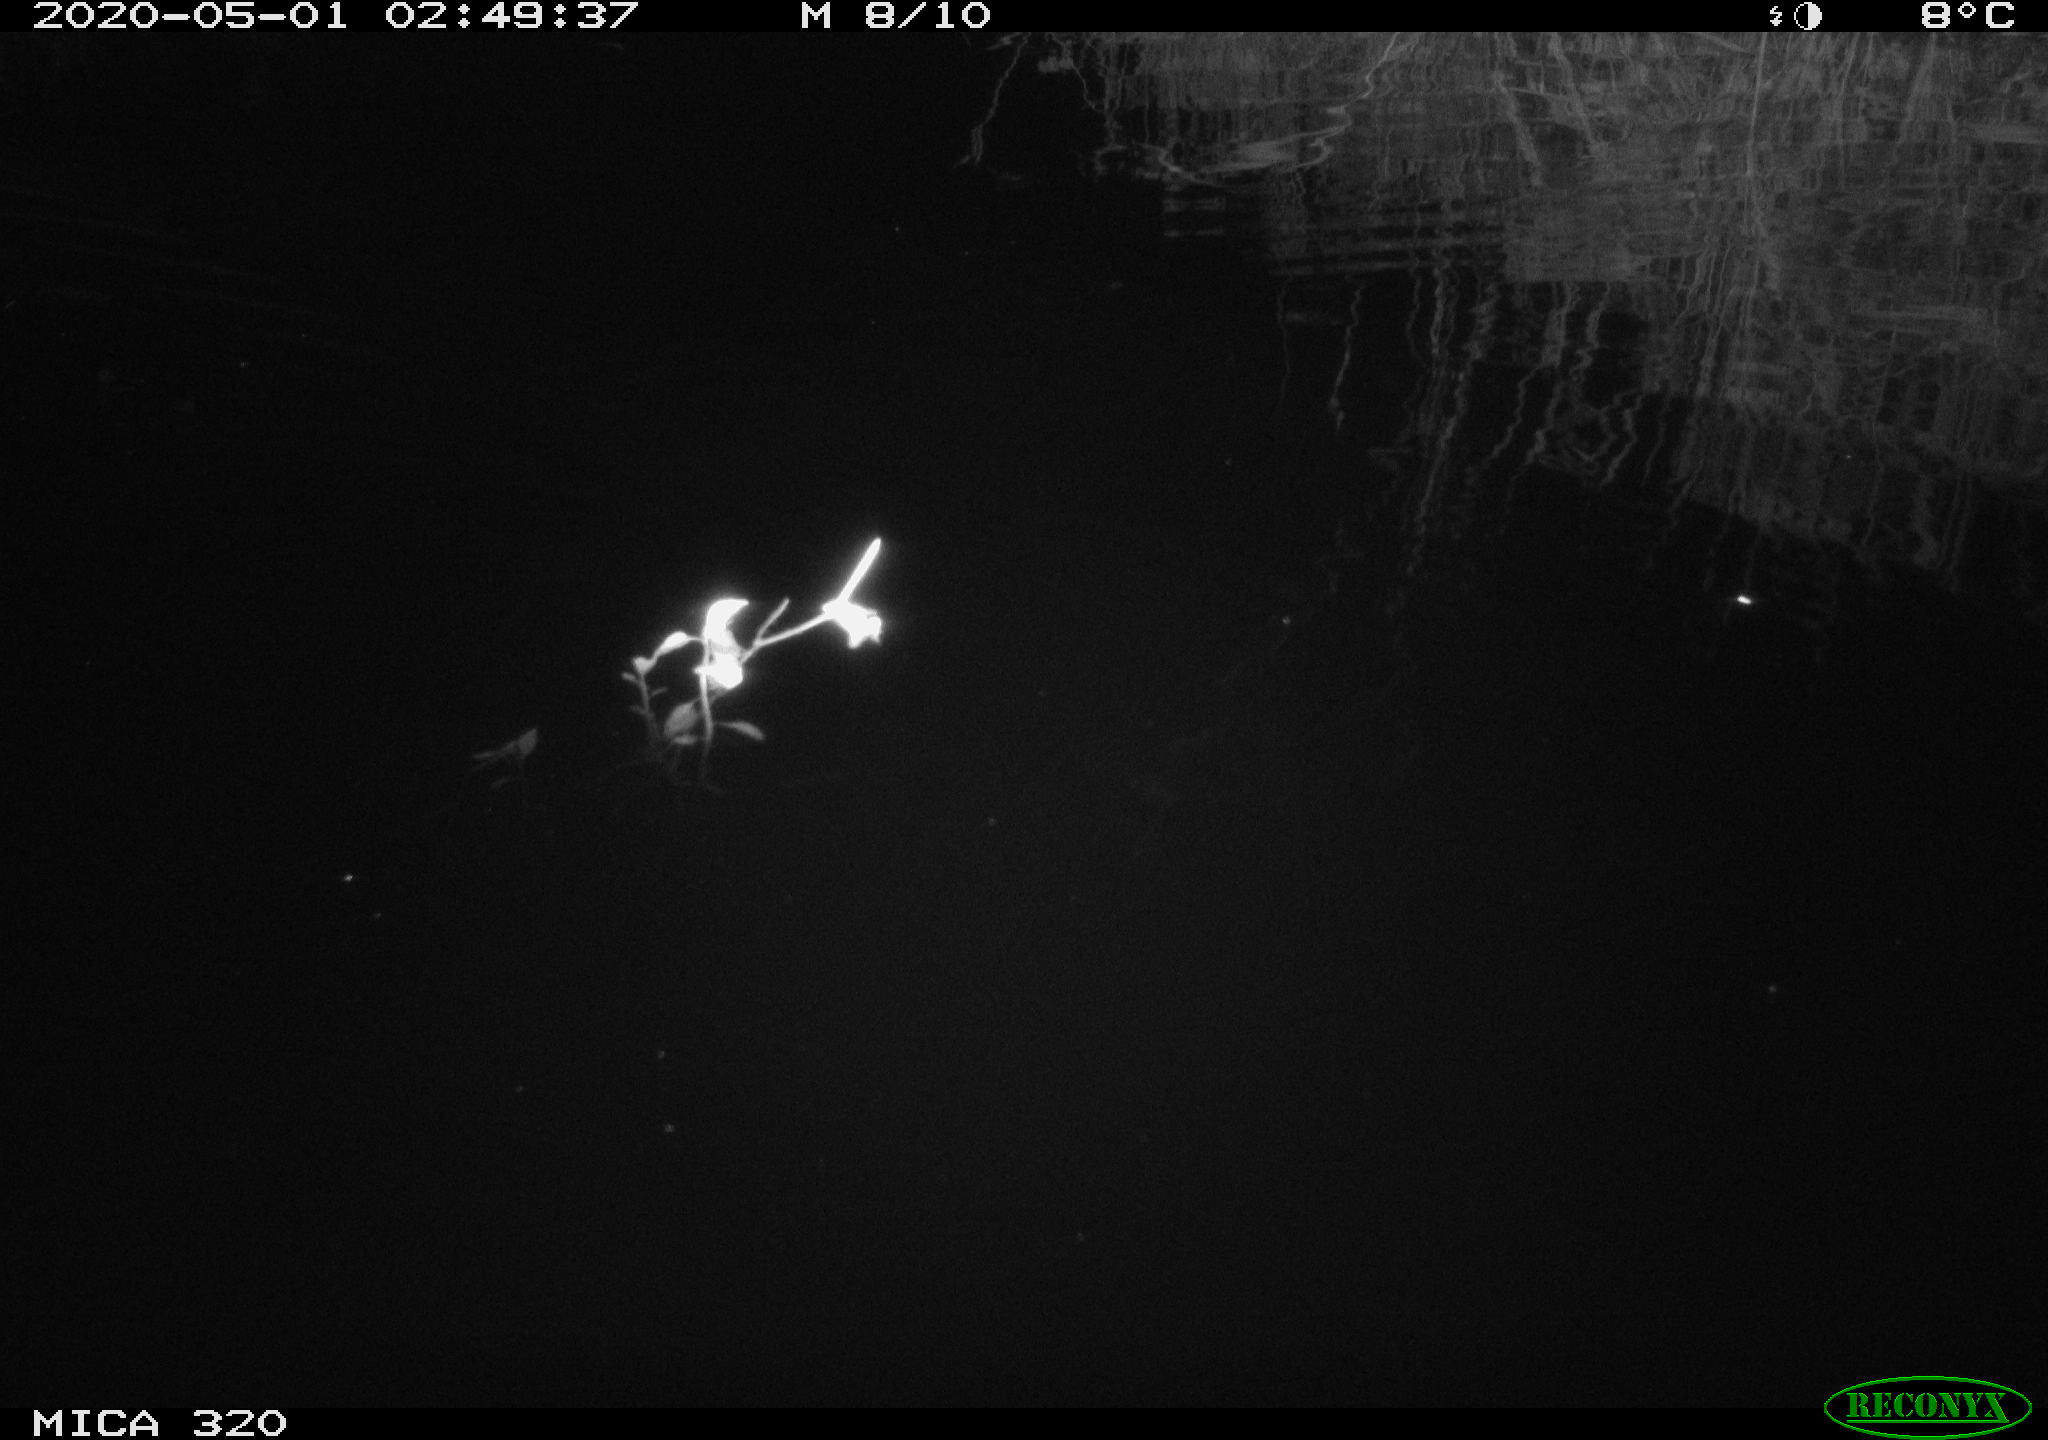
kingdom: Animalia
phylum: Chordata
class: Aves
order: Anseriformes
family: Anatidae
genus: Anas
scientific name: Anas platyrhynchos
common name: Mallard
